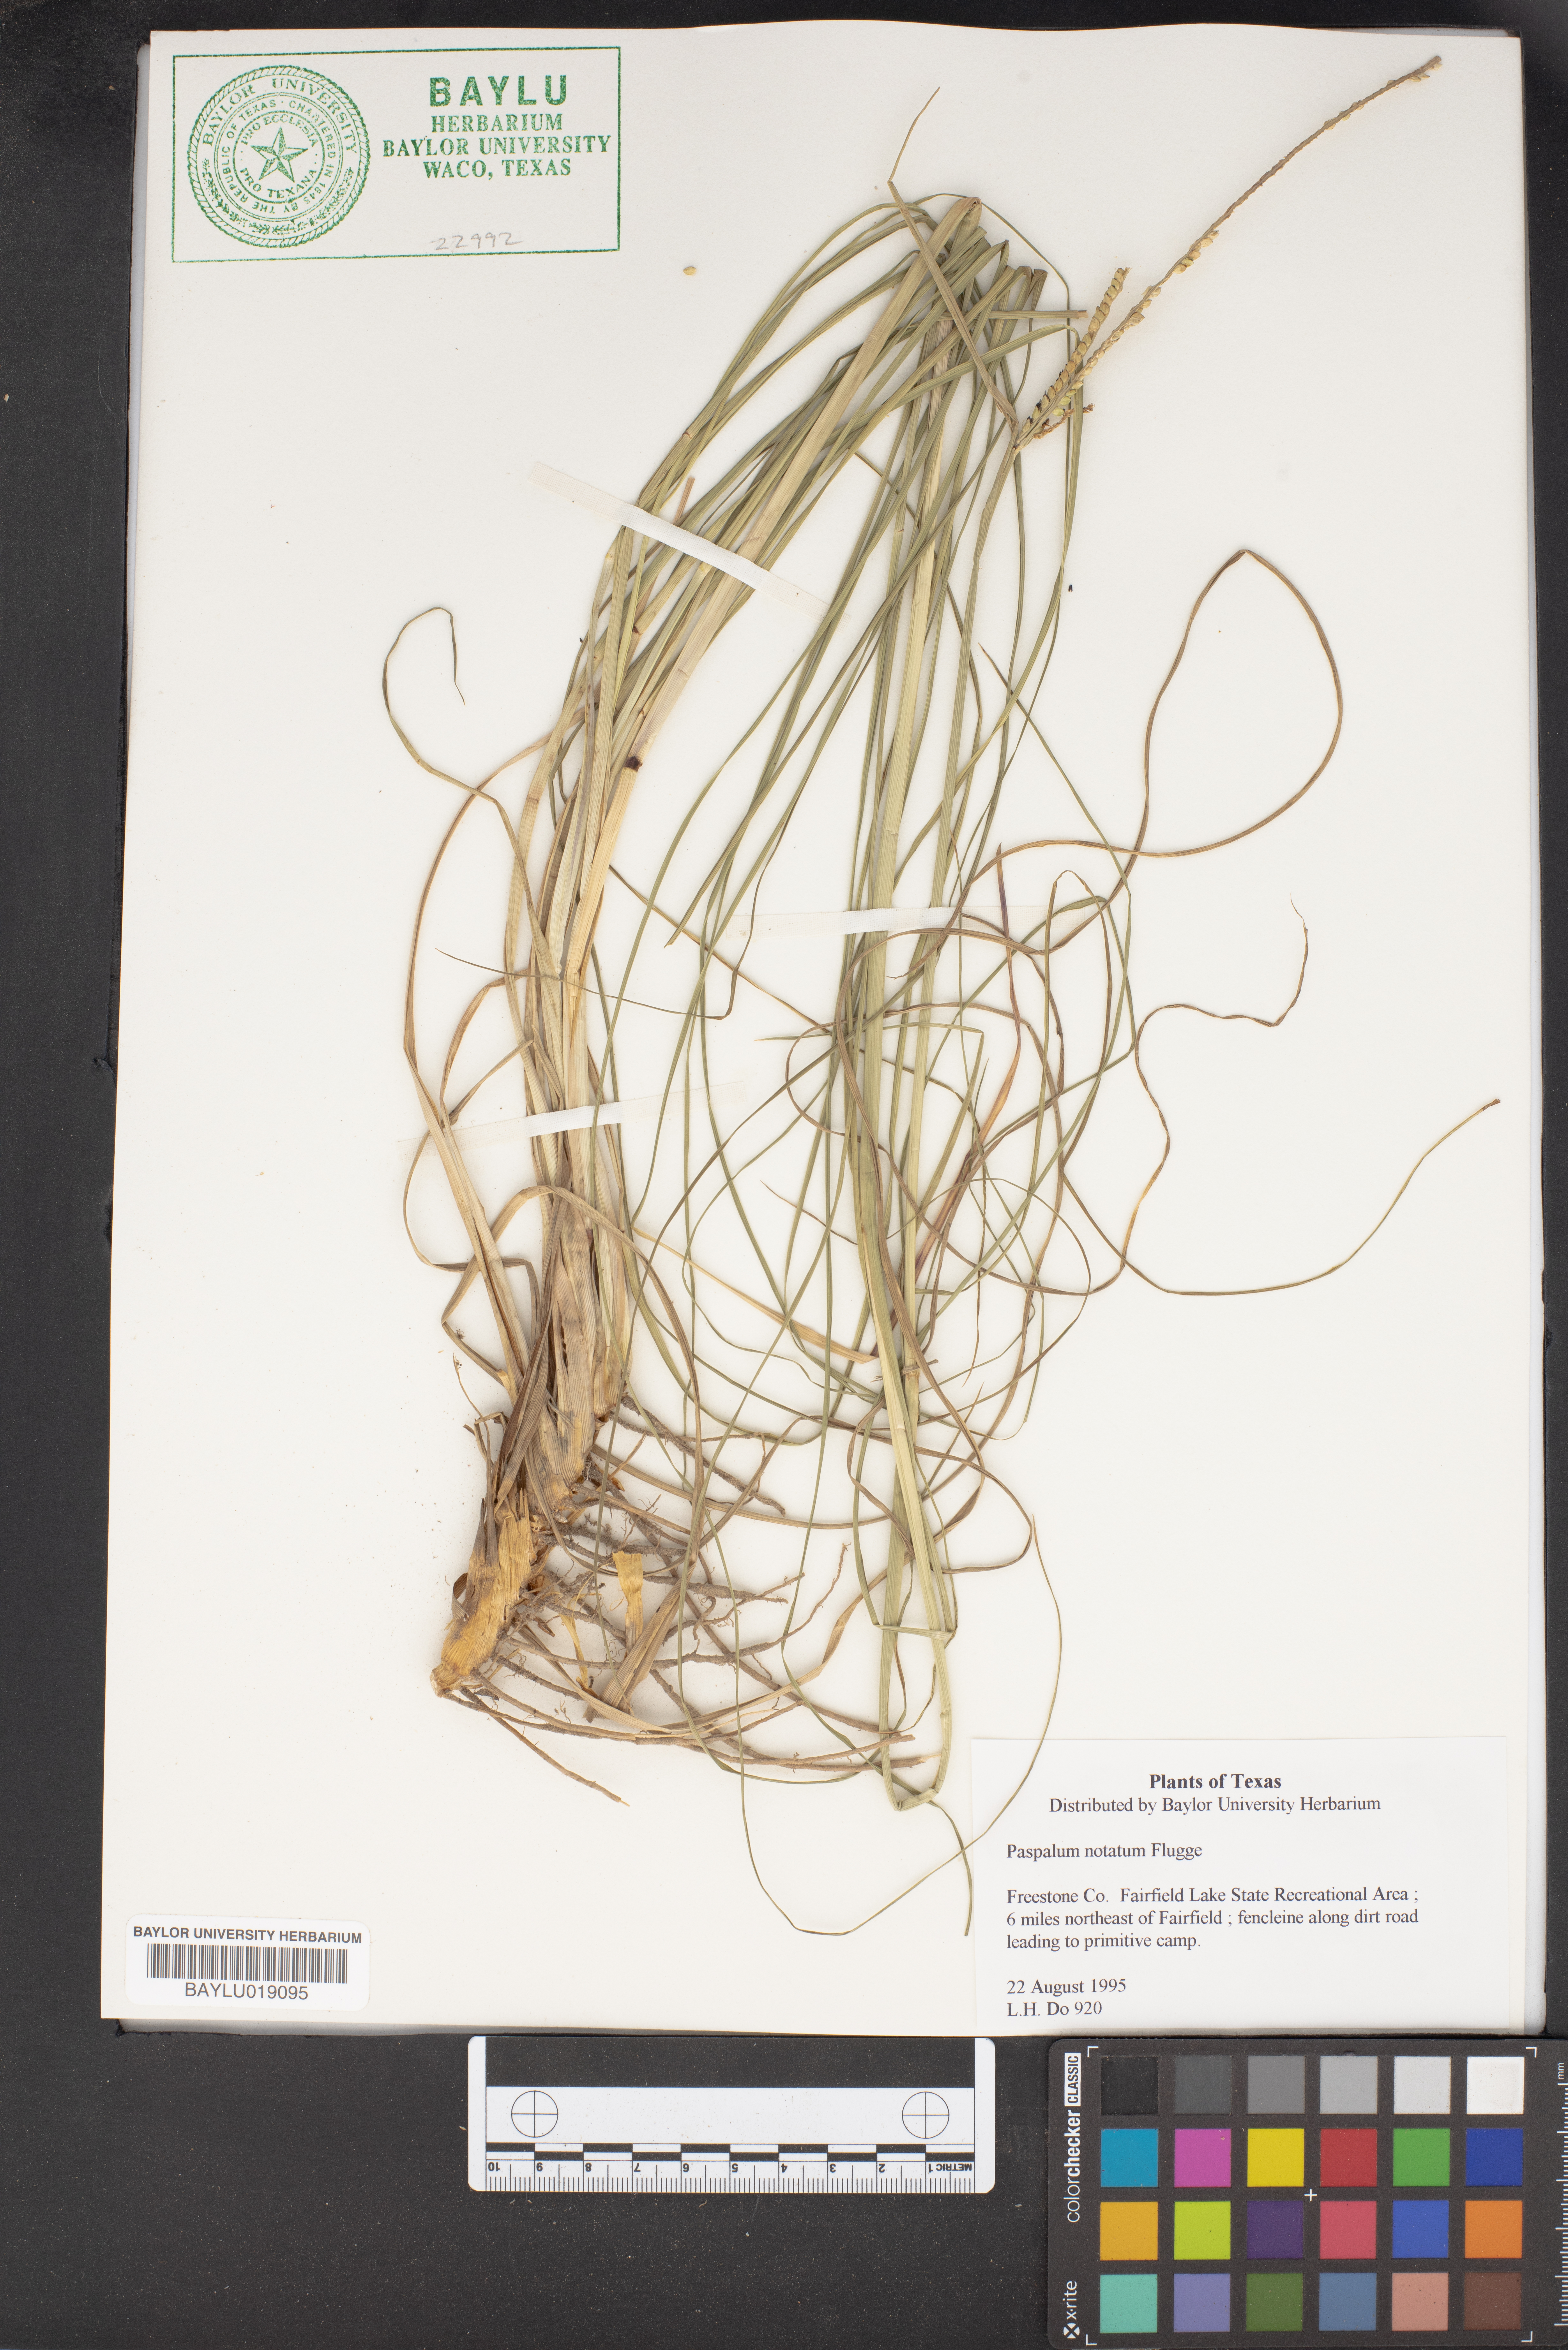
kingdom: Plantae
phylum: Tracheophyta
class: Liliopsida
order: Poales
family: Poaceae
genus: Paspalum
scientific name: Paspalum notatum
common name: Bahiagrass
